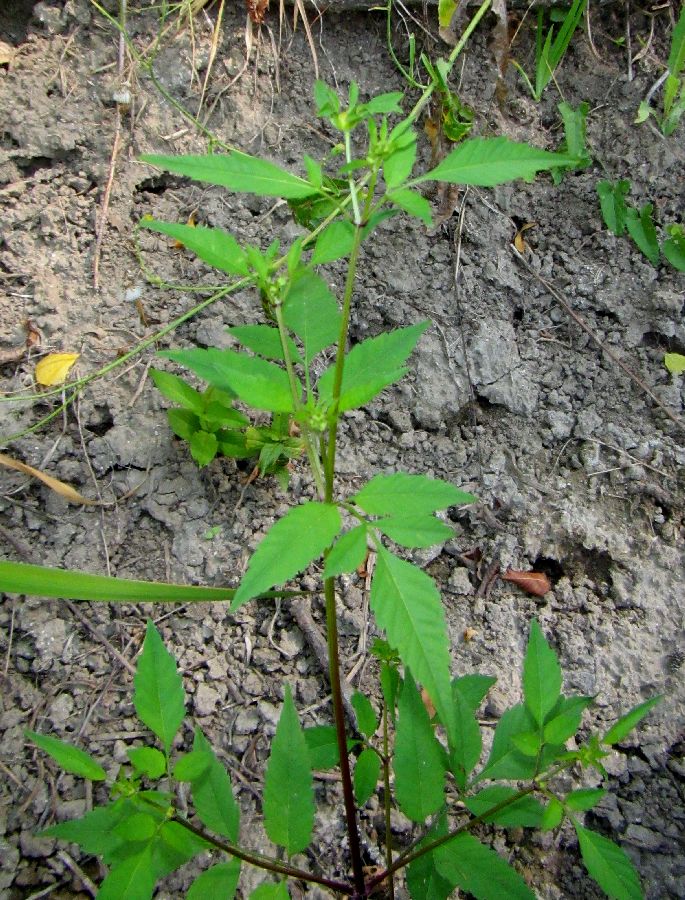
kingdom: Plantae
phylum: Tracheophyta
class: Magnoliopsida
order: Asterales
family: Asteraceae
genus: Bidens
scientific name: Bidens frondosa
